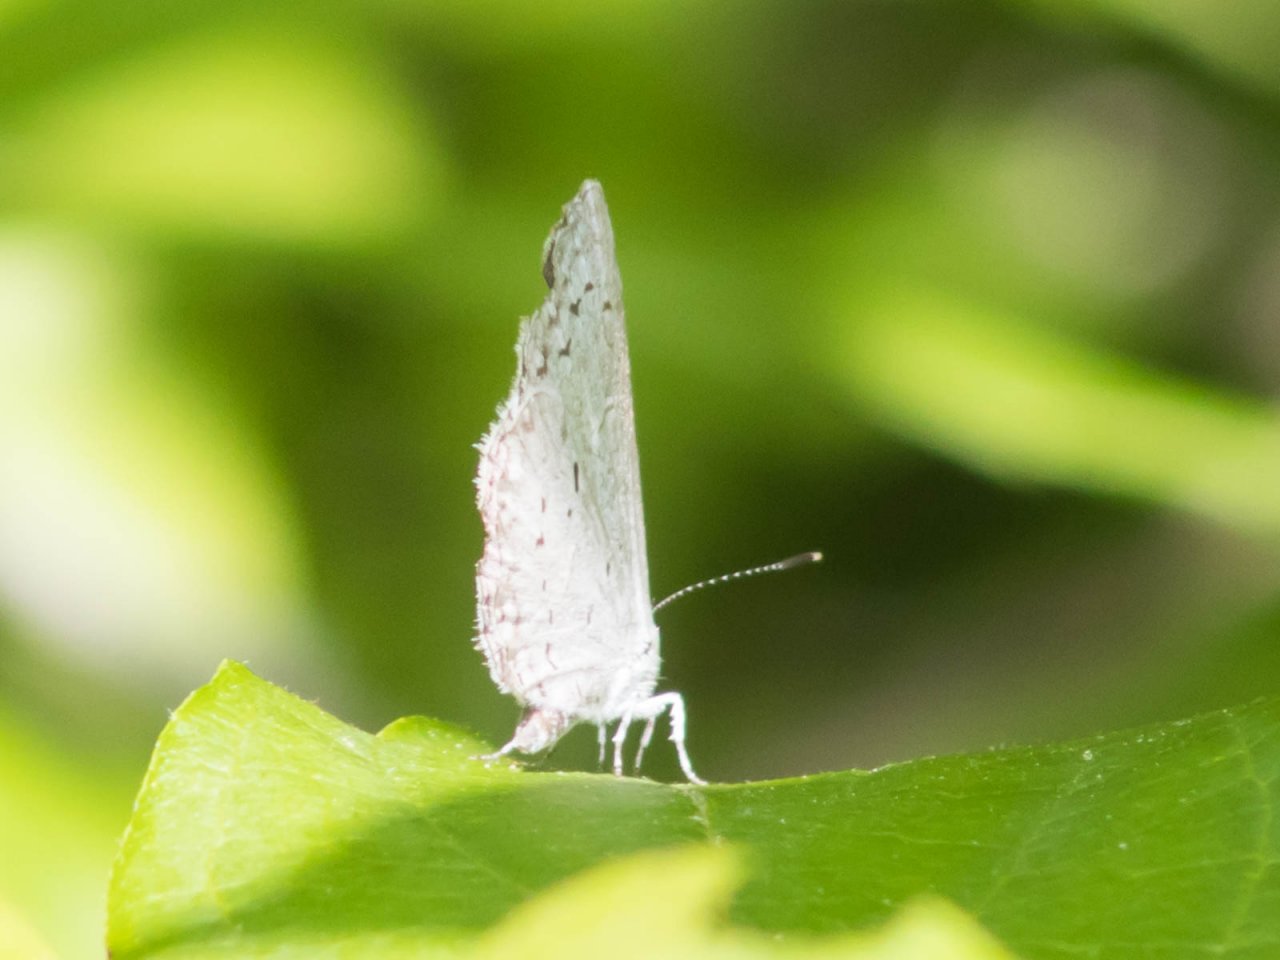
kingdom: Animalia
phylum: Arthropoda
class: Insecta
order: Lepidoptera
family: Lycaenidae
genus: Cyaniris
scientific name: Cyaniris neglecta
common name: Summer Azure
